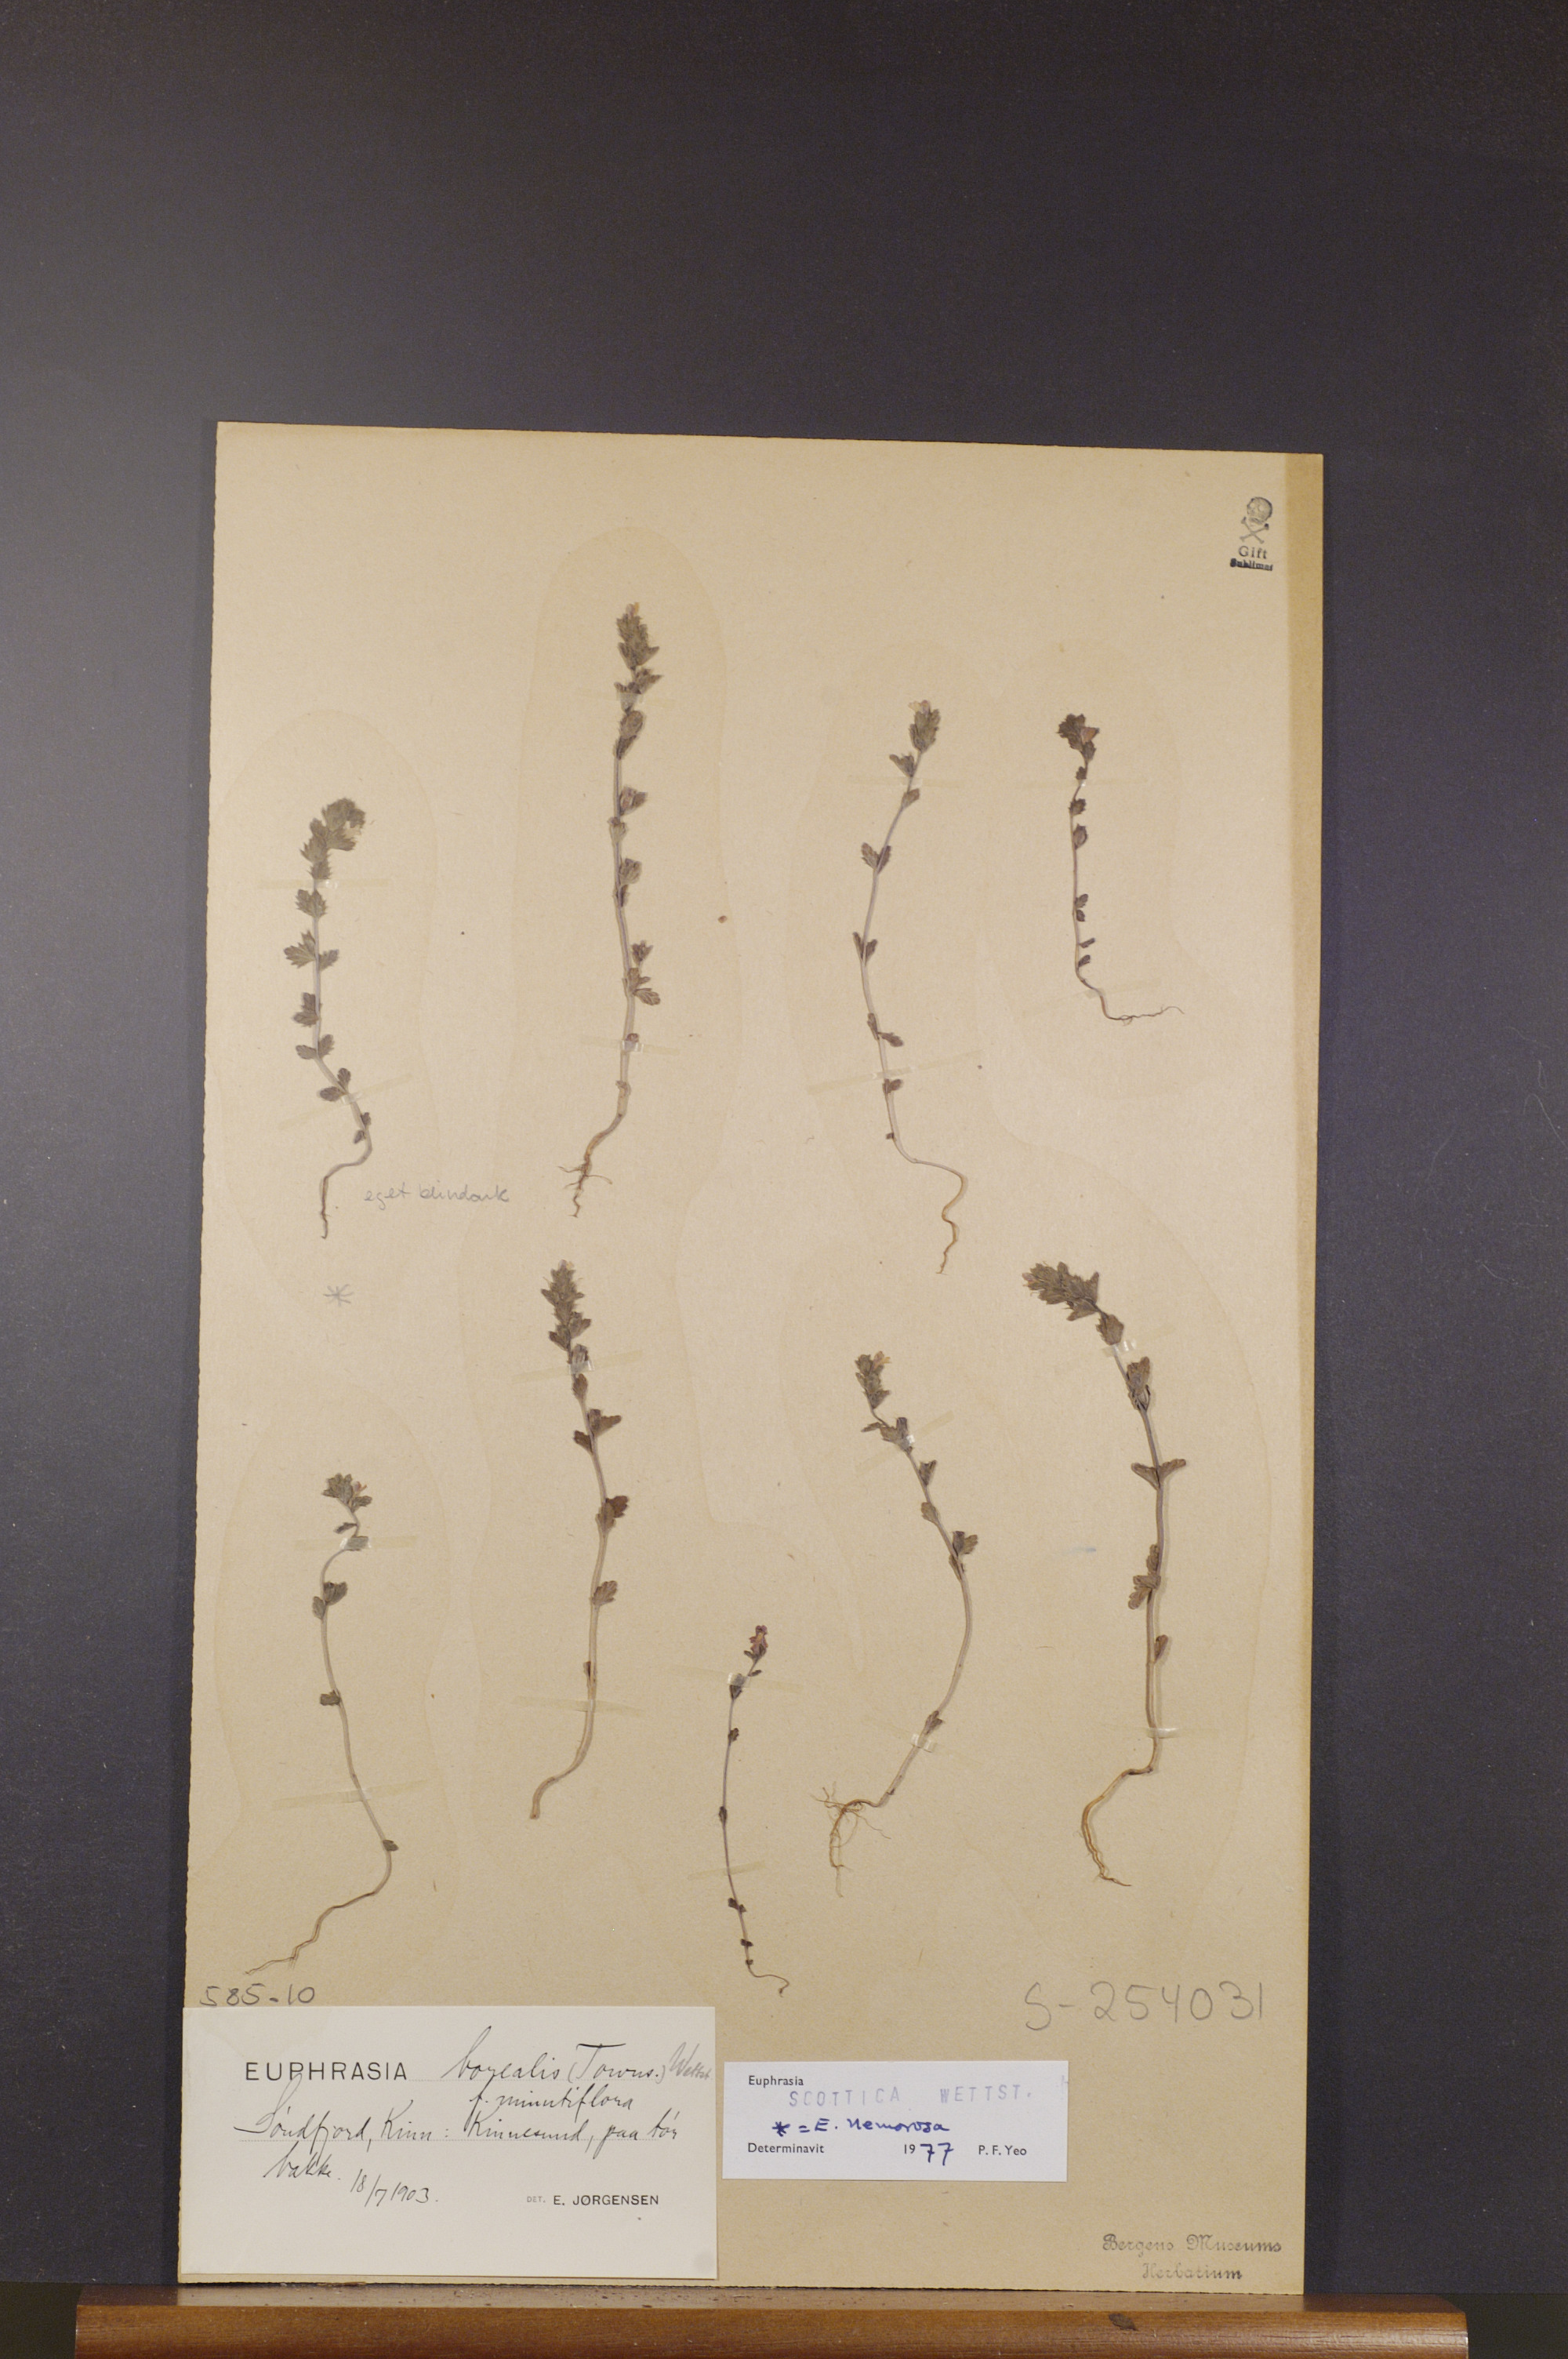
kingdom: Plantae
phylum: Tracheophyta
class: Magnoliopsida
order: Lamiales
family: Orobanchaceae
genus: Euphrasia
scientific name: Euphrasia scottica
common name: Slender scottish eyebright
